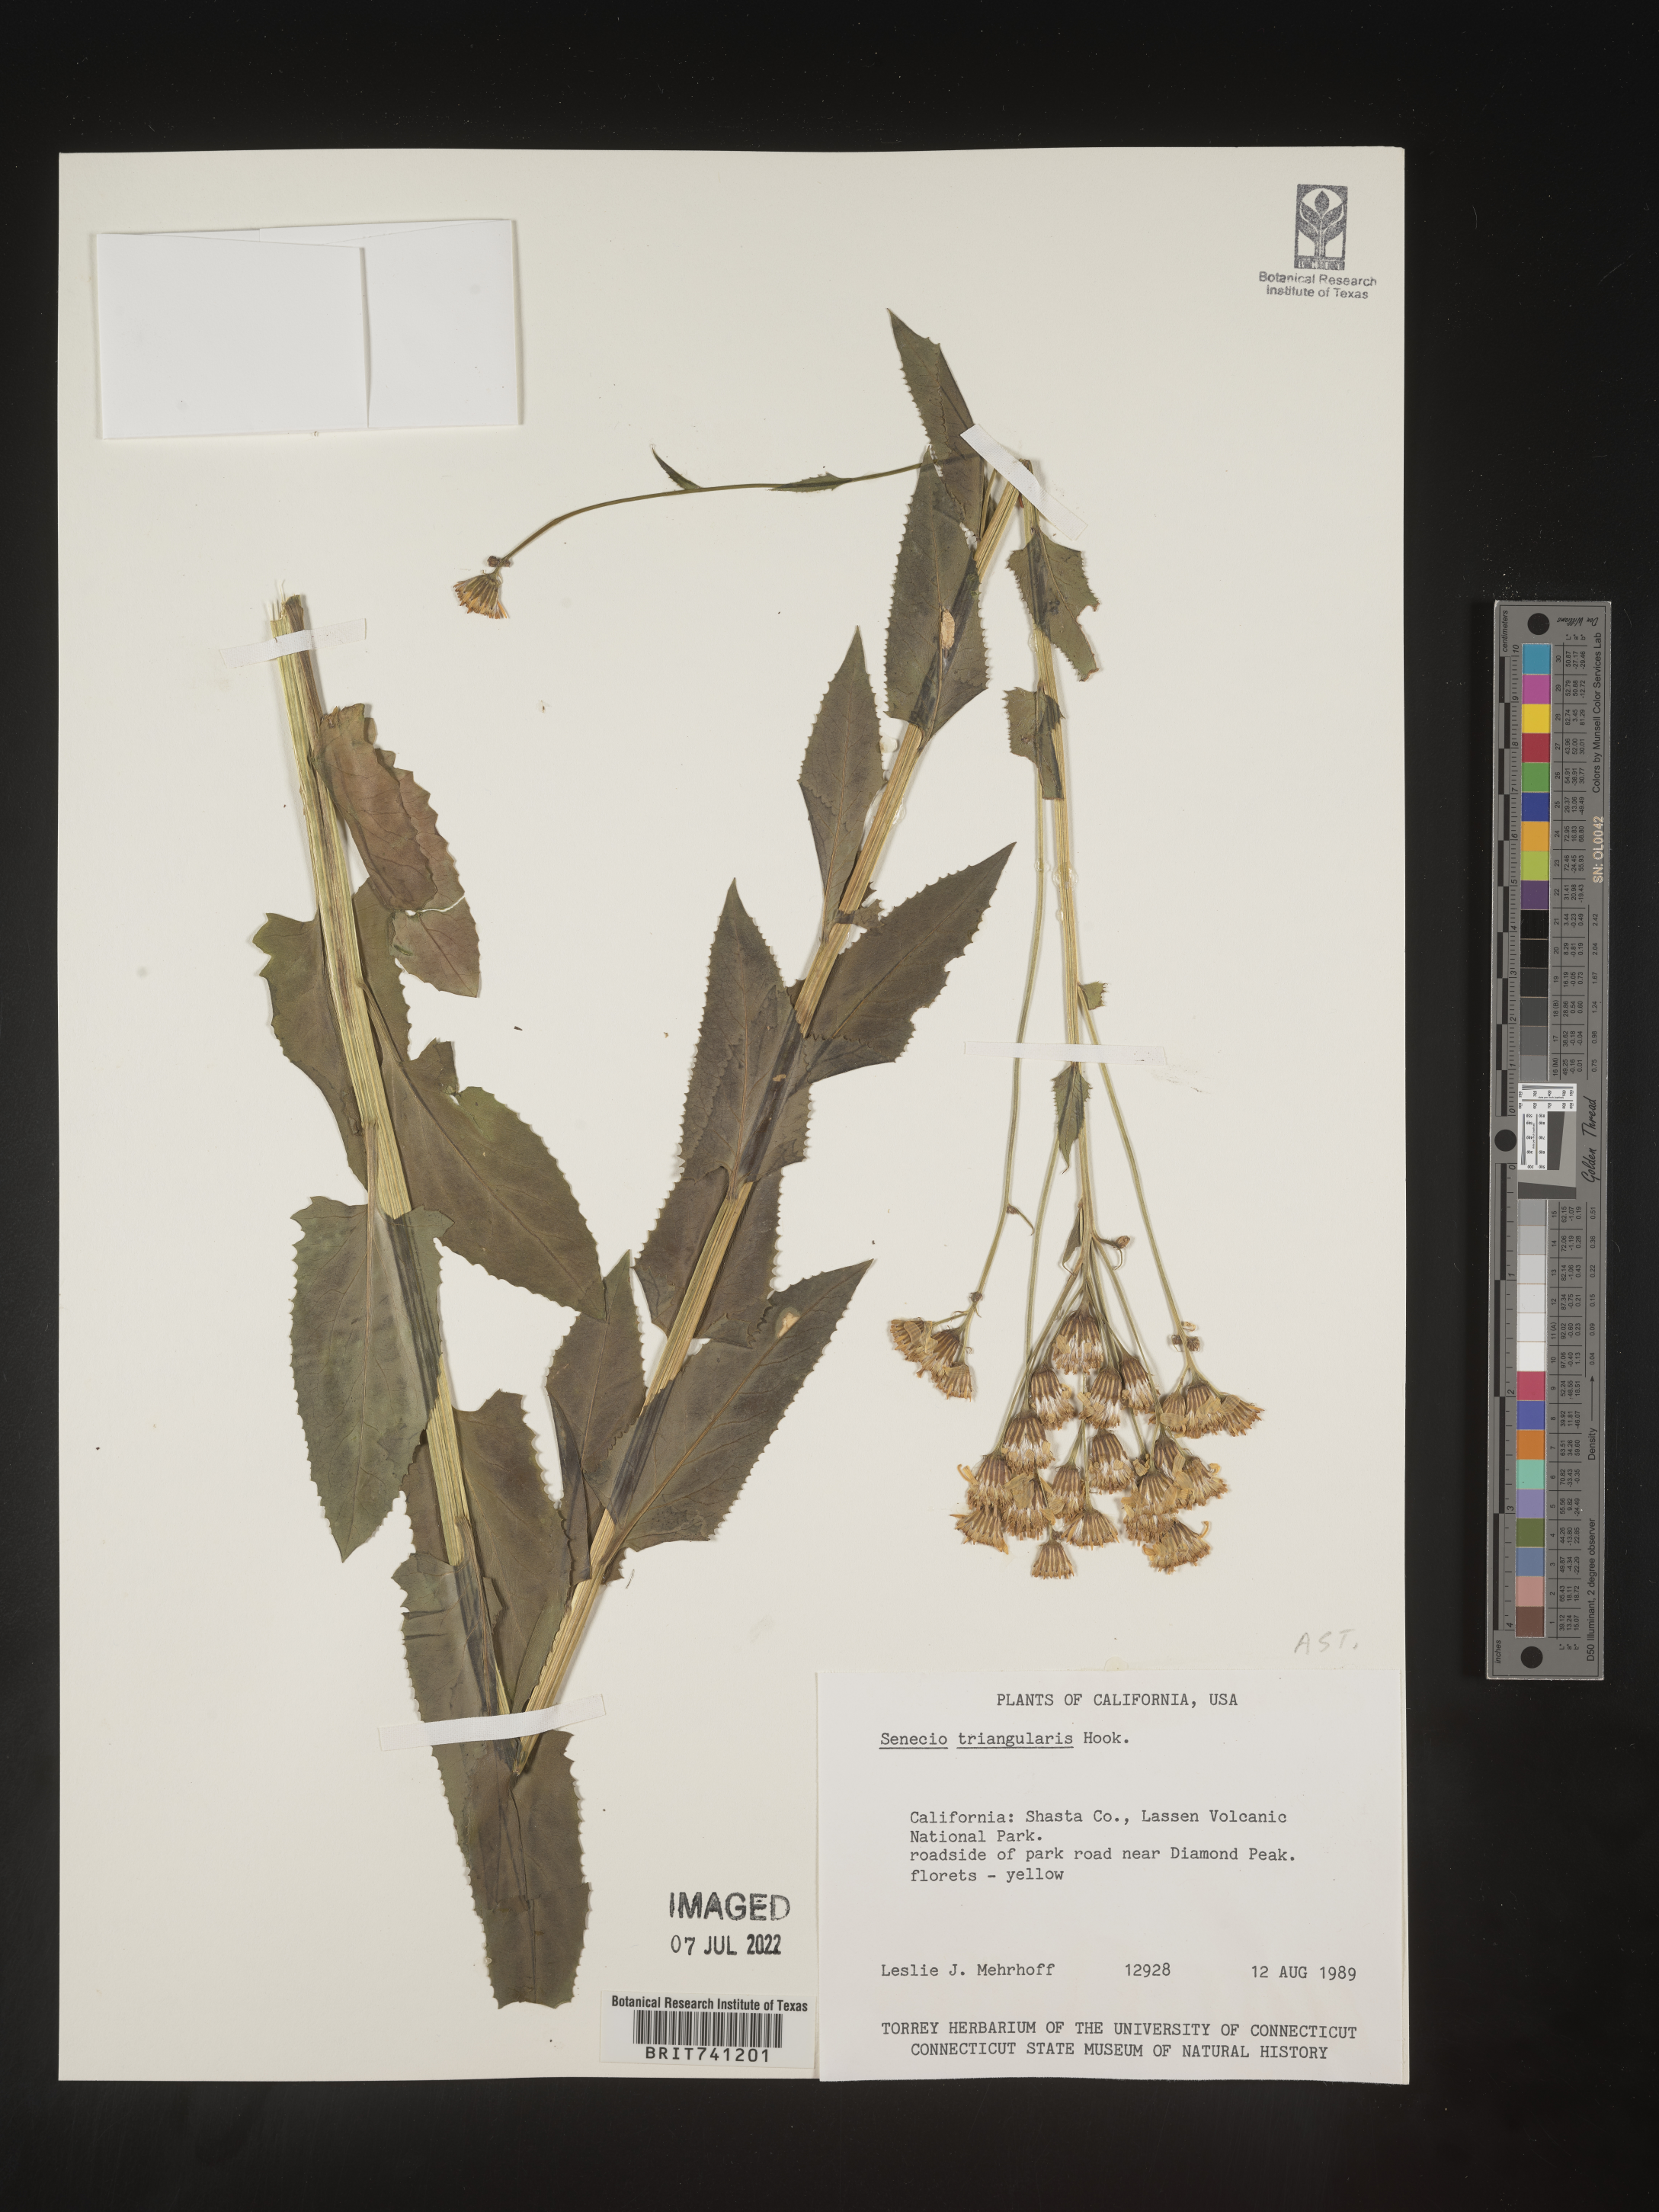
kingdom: Plantae
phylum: Tracheophyta
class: Magnoliopsida
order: Asterales
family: Asteraceae
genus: Senecio
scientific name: Senecio triangularis
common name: Arrowleaf butterweed
